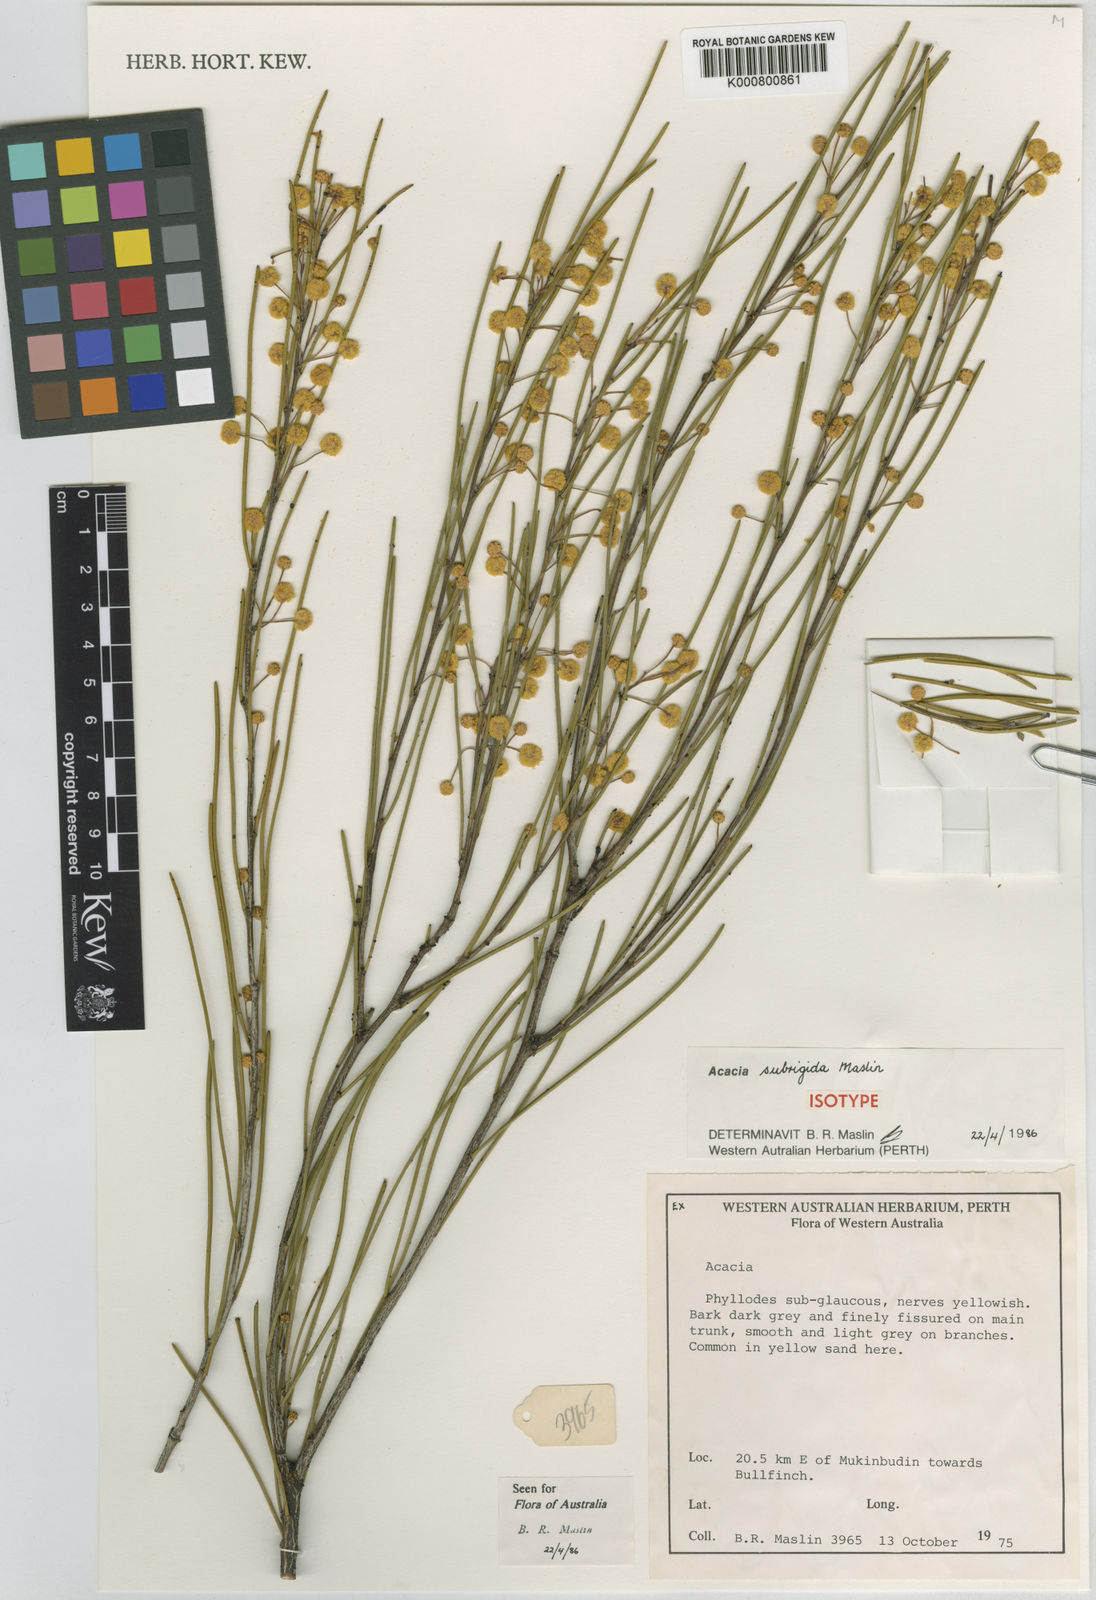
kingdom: Plantae
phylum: Tracheophyta
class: Magnoliopsida
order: Fabales
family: Fabaceae
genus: Acacia
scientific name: Acacia subrigida
